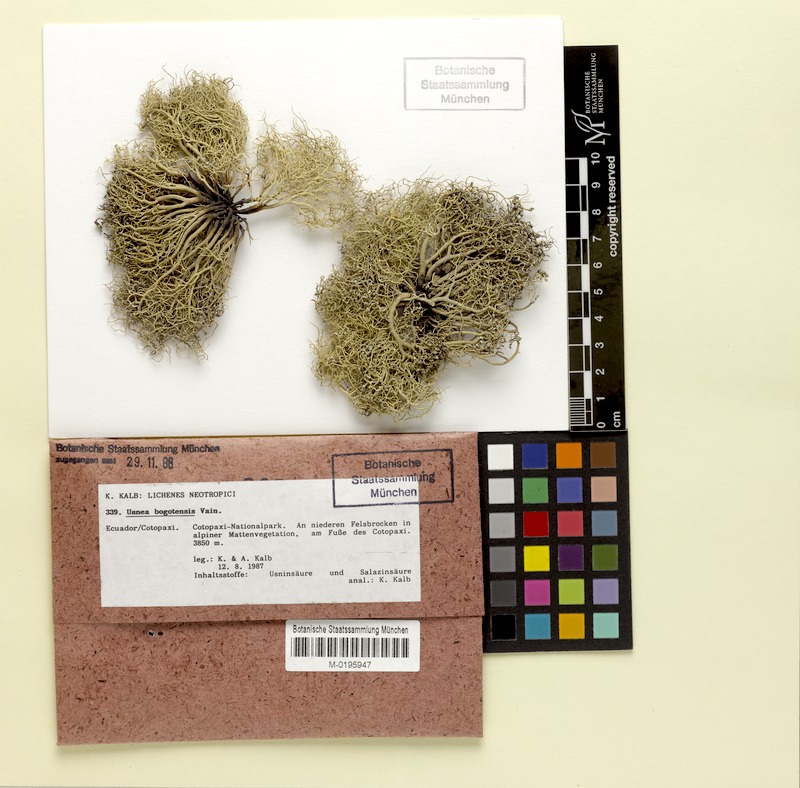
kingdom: Fungi
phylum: Ascomycota
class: Lecanoromycetes
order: Lecanorales
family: Parmeliaceae
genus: Usnea
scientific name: Usnea bogotensis
